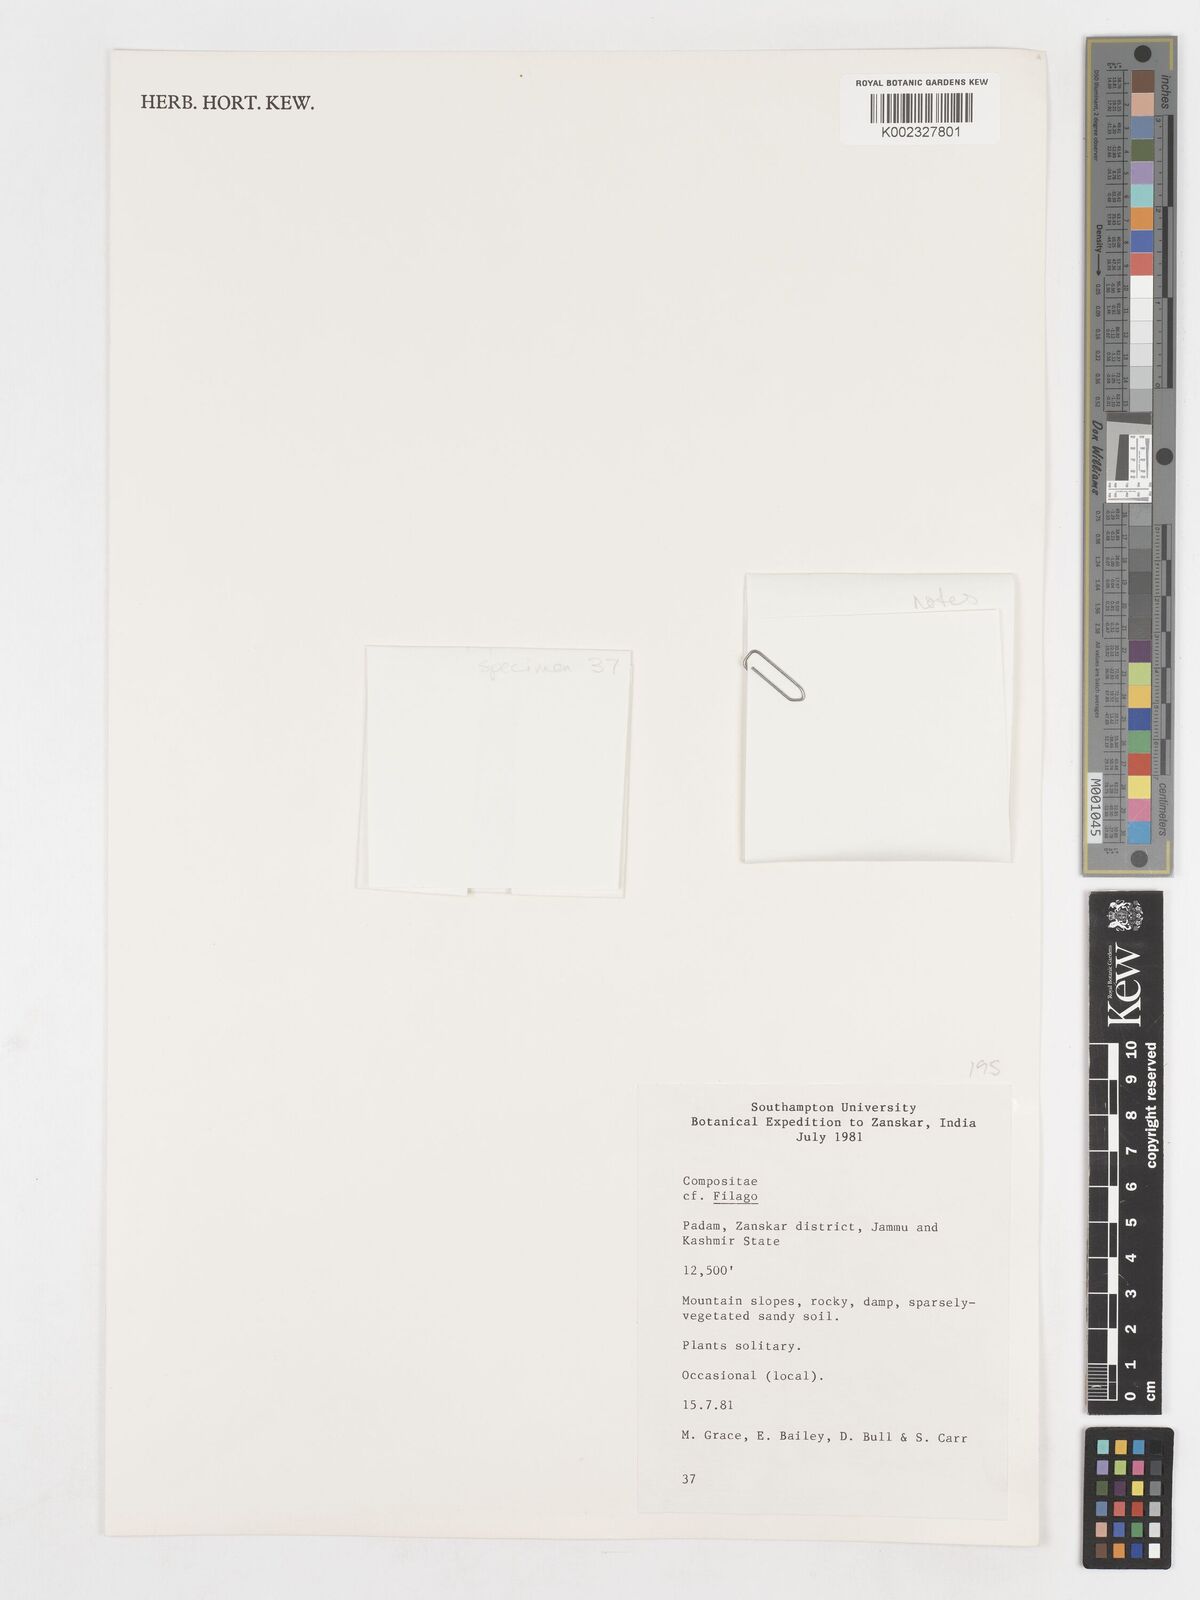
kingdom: Plantae
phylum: Tracheophyta
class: Magnoliopsida
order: Asterales
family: Asteraceae
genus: Ifloga
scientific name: Ifloga
